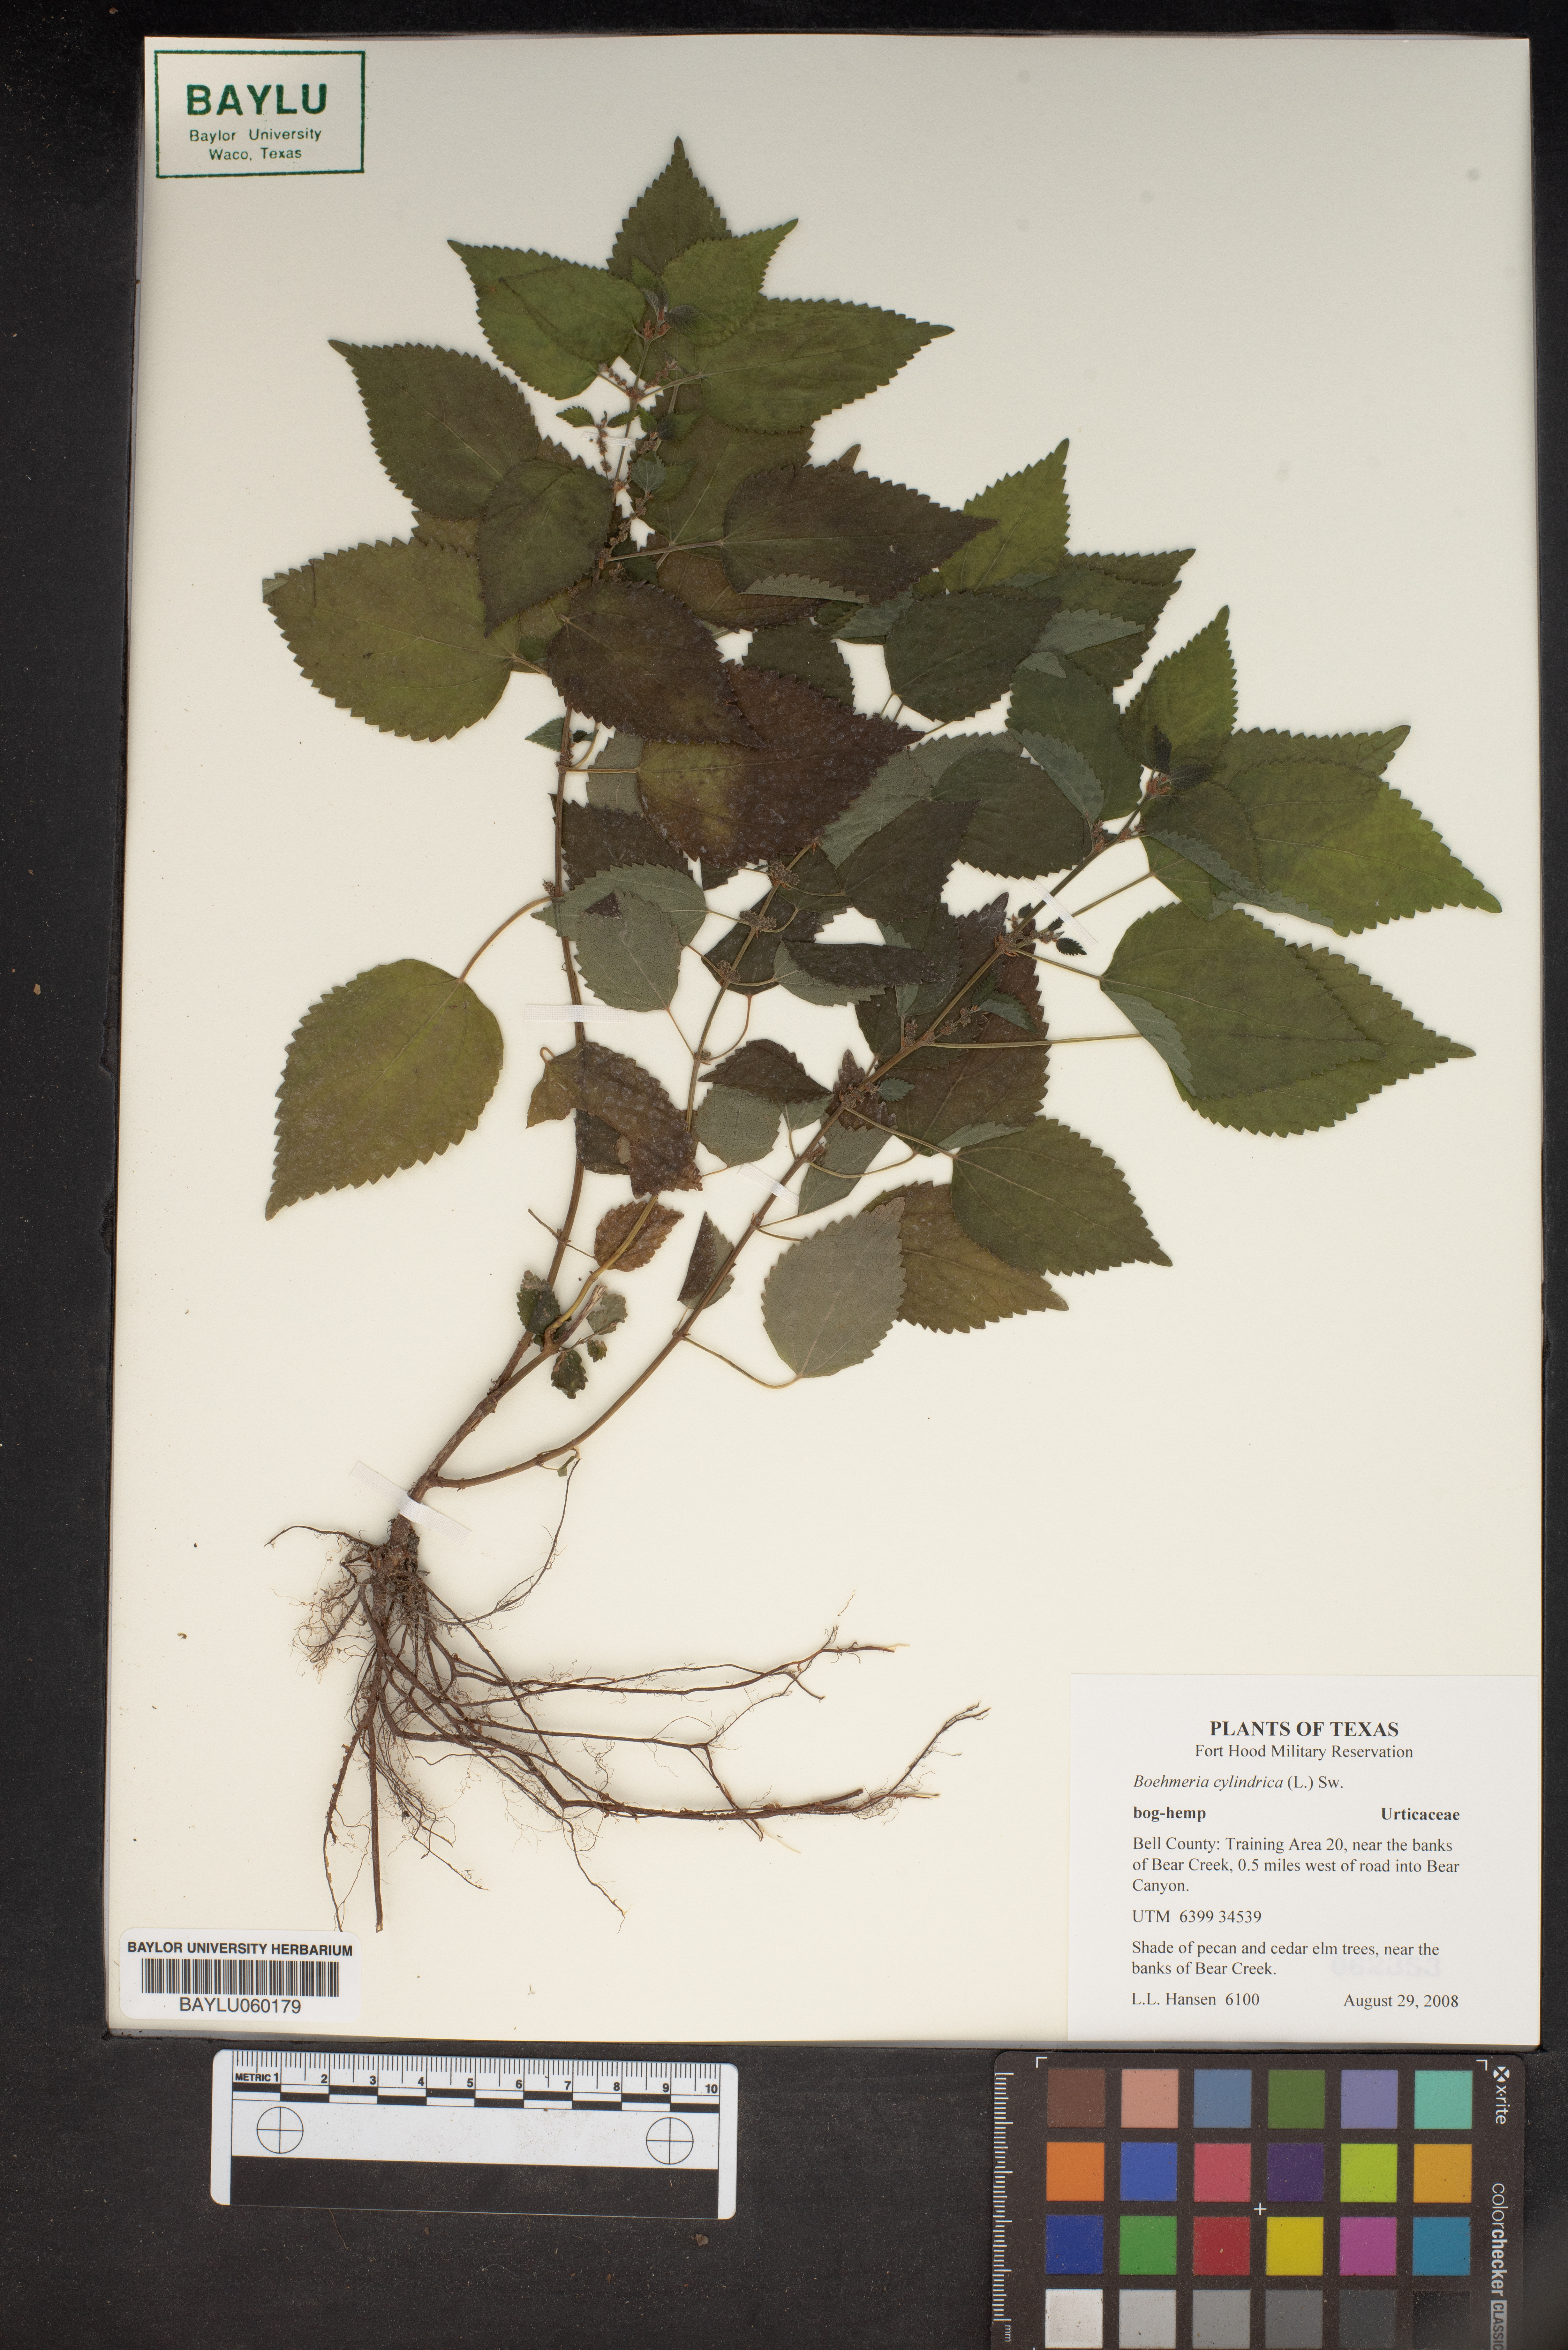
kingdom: Plantae
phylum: Tracheophyta
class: Magnoliopsida
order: Rosales
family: Urticaceae
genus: Boehmeria
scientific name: Boehmeria cylindrica
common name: Bog-hemp
